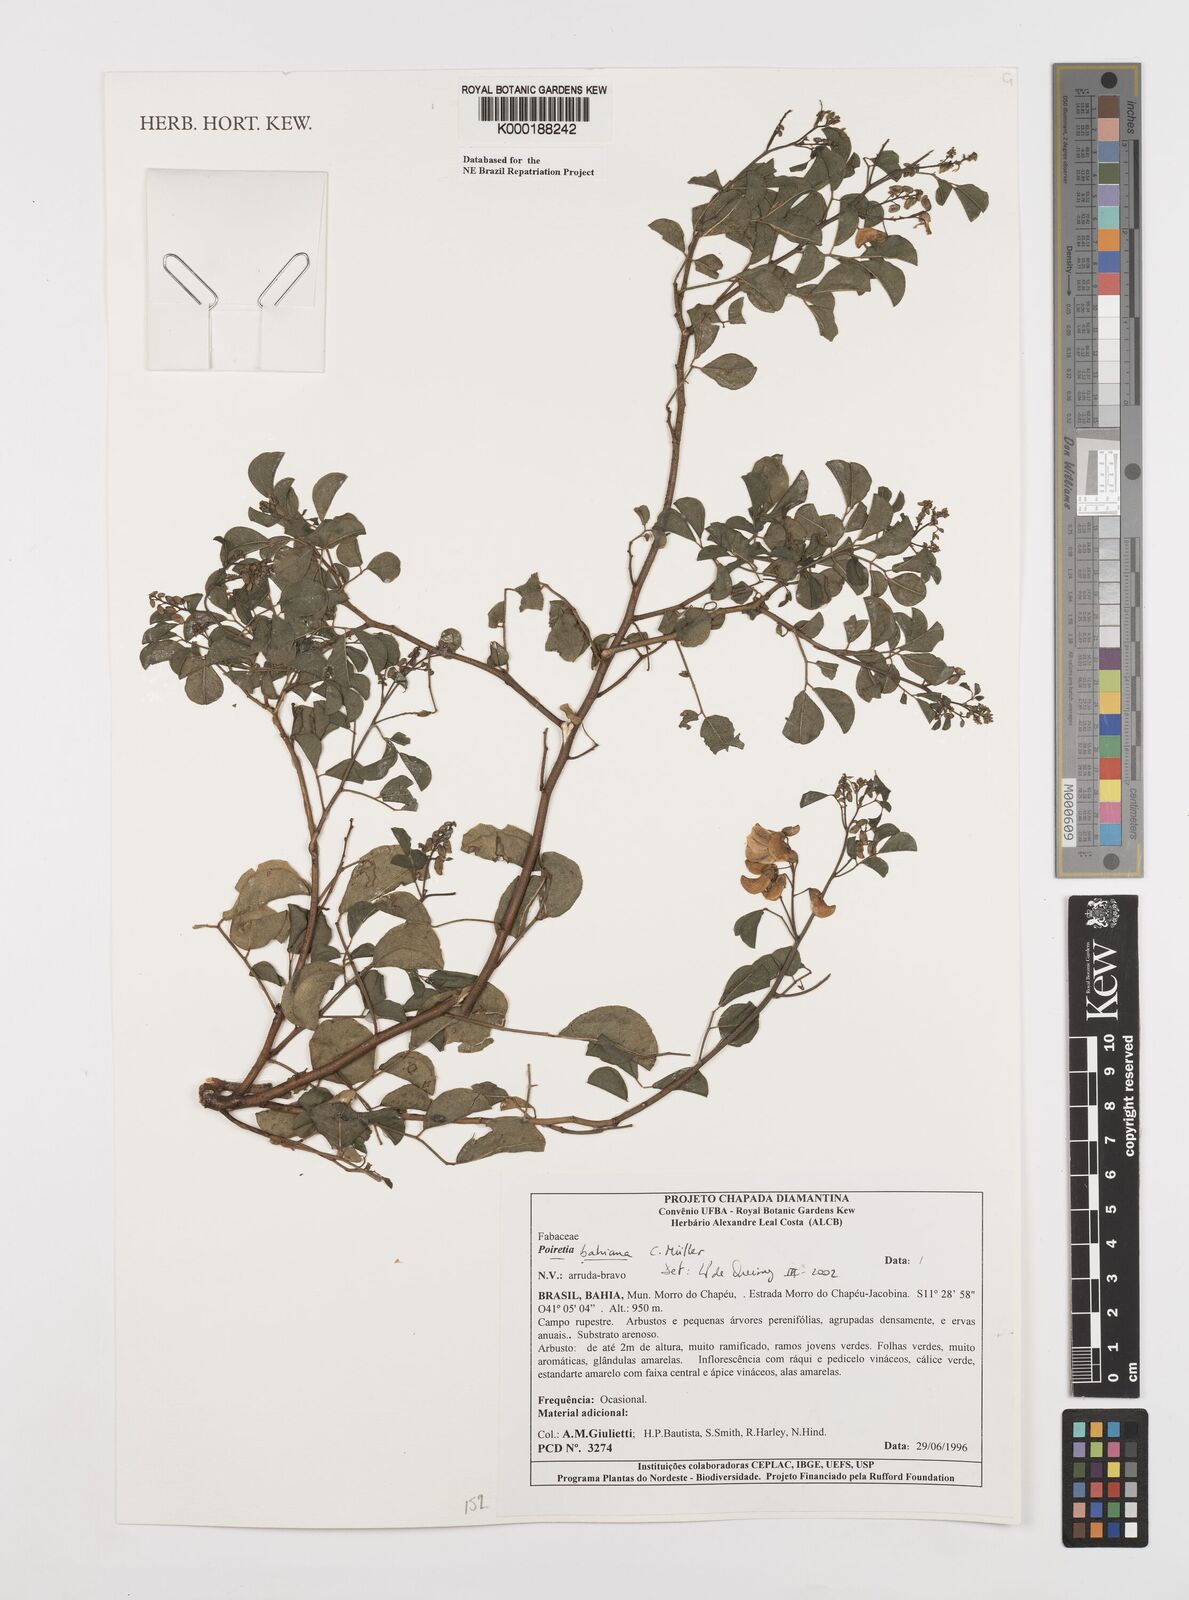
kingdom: Plantae
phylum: Tracheophyta
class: Magnoliopsida
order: Fabales
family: Fabaceae
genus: Poiretia
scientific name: Poiretia
